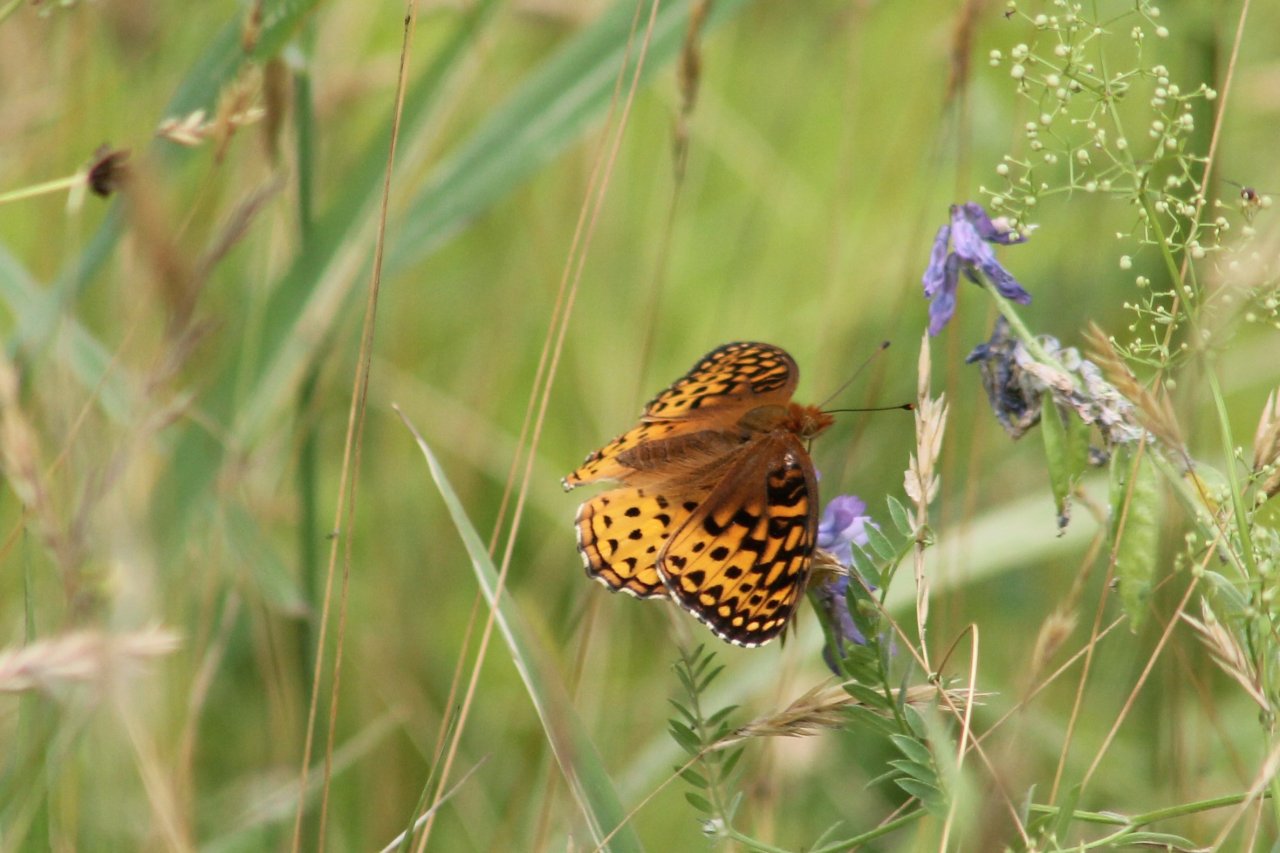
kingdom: Animalia
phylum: Arthropoda
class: Insecta
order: Lepidoptera
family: Nymphalidae
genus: Speyeria
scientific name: Speyeria atlantis
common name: Atlantis Fritillary
